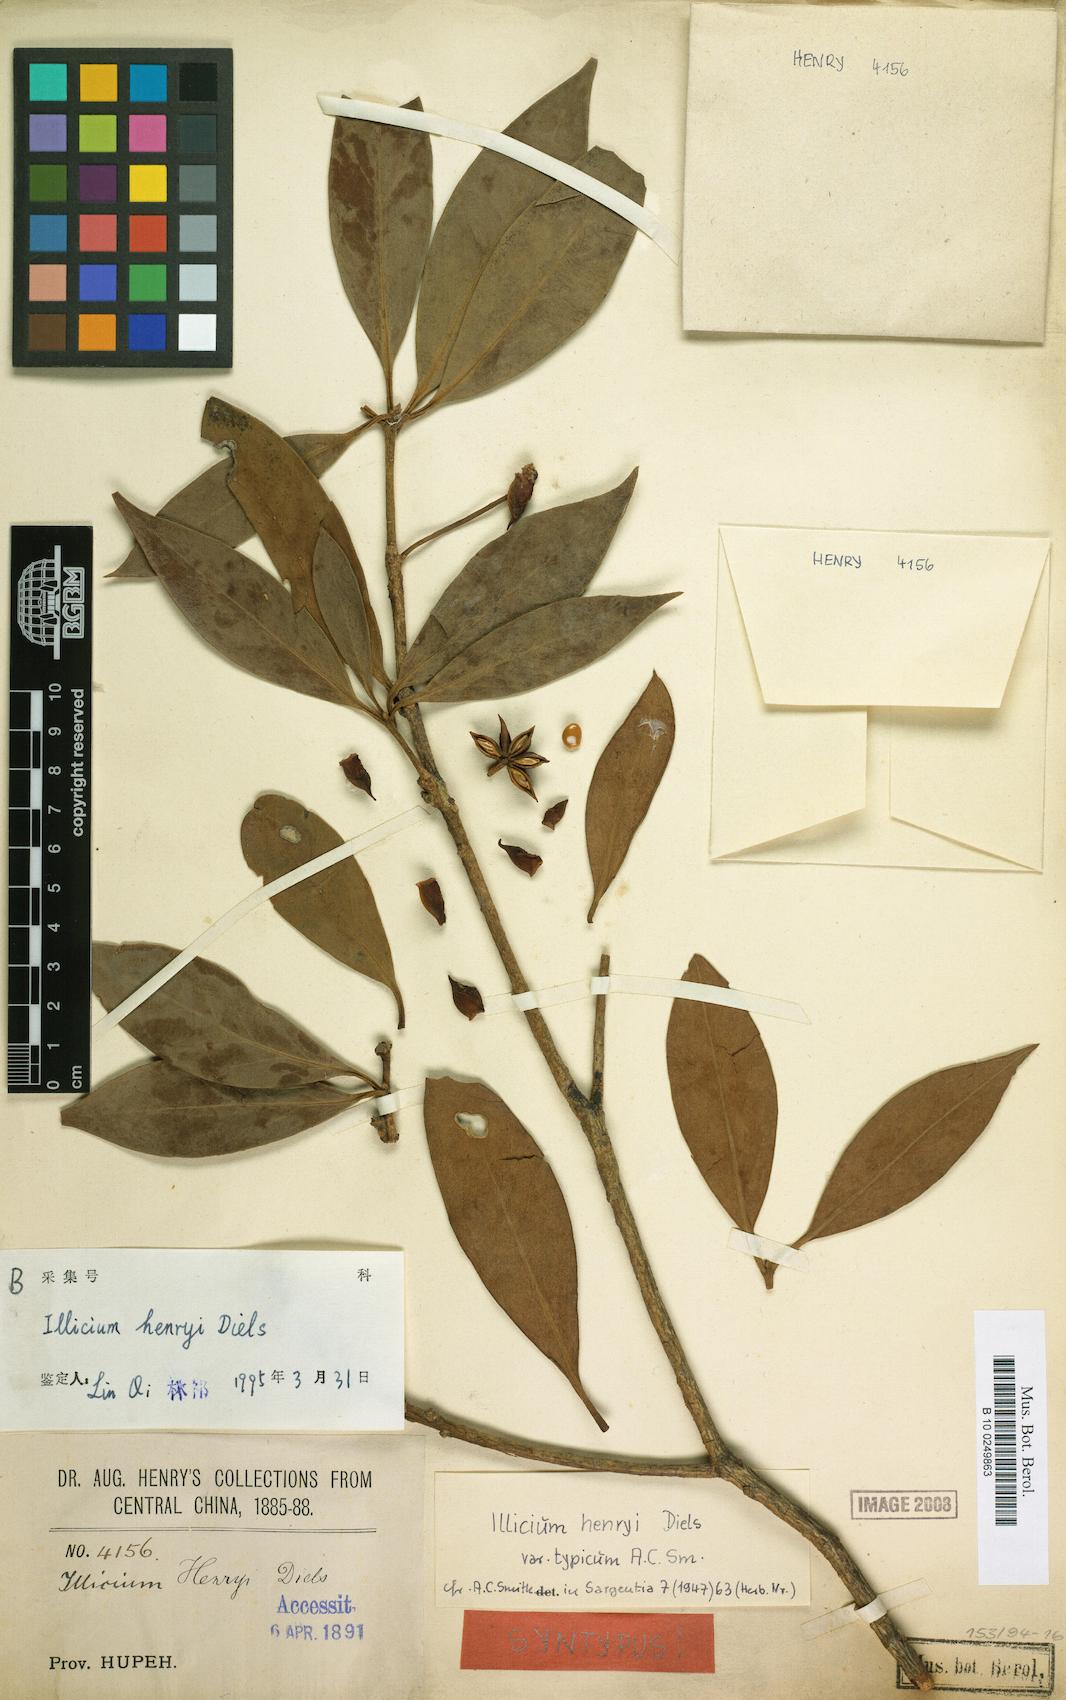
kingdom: Plantae
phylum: Tracheophyta
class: Magnoliopsida
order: Austrobaileyales
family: Schisandraceae
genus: Illicium
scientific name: Illicium henryi
